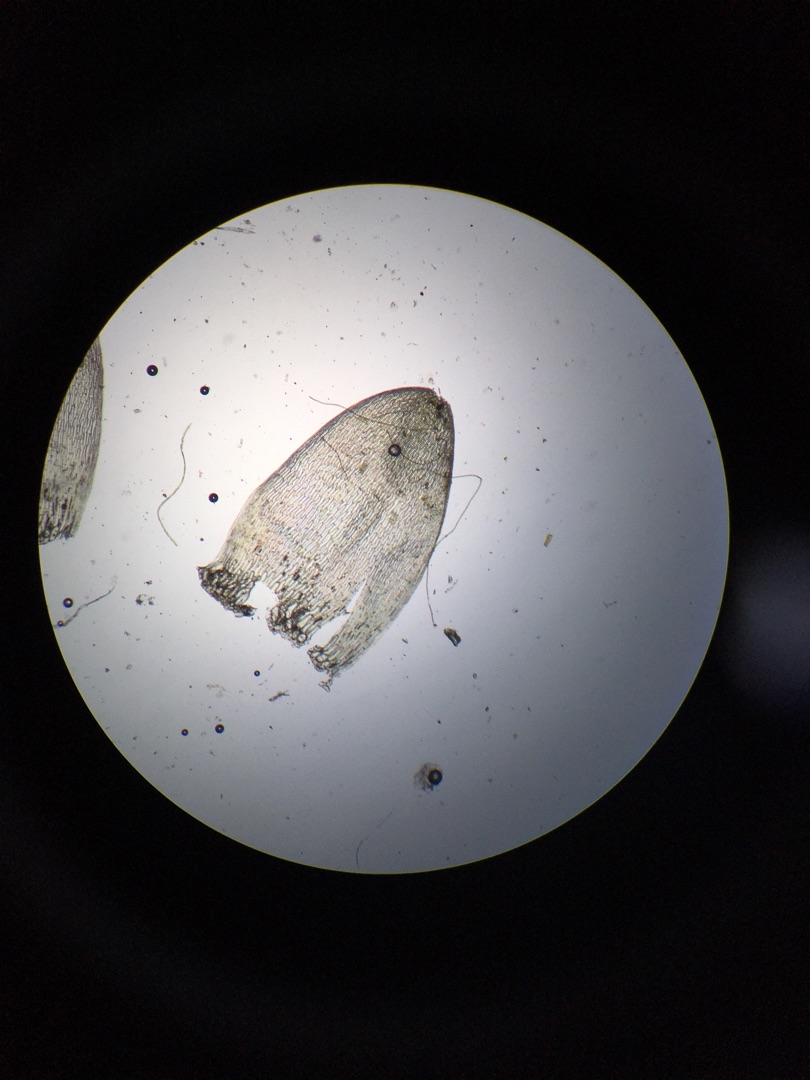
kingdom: Plantae
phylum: Bryophyta
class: Sphagnopsida
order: Sphagnales
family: Sphagnaceae
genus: Sphagnum
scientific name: Sphagnum denticulatum
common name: Rødbrun tørvemos
